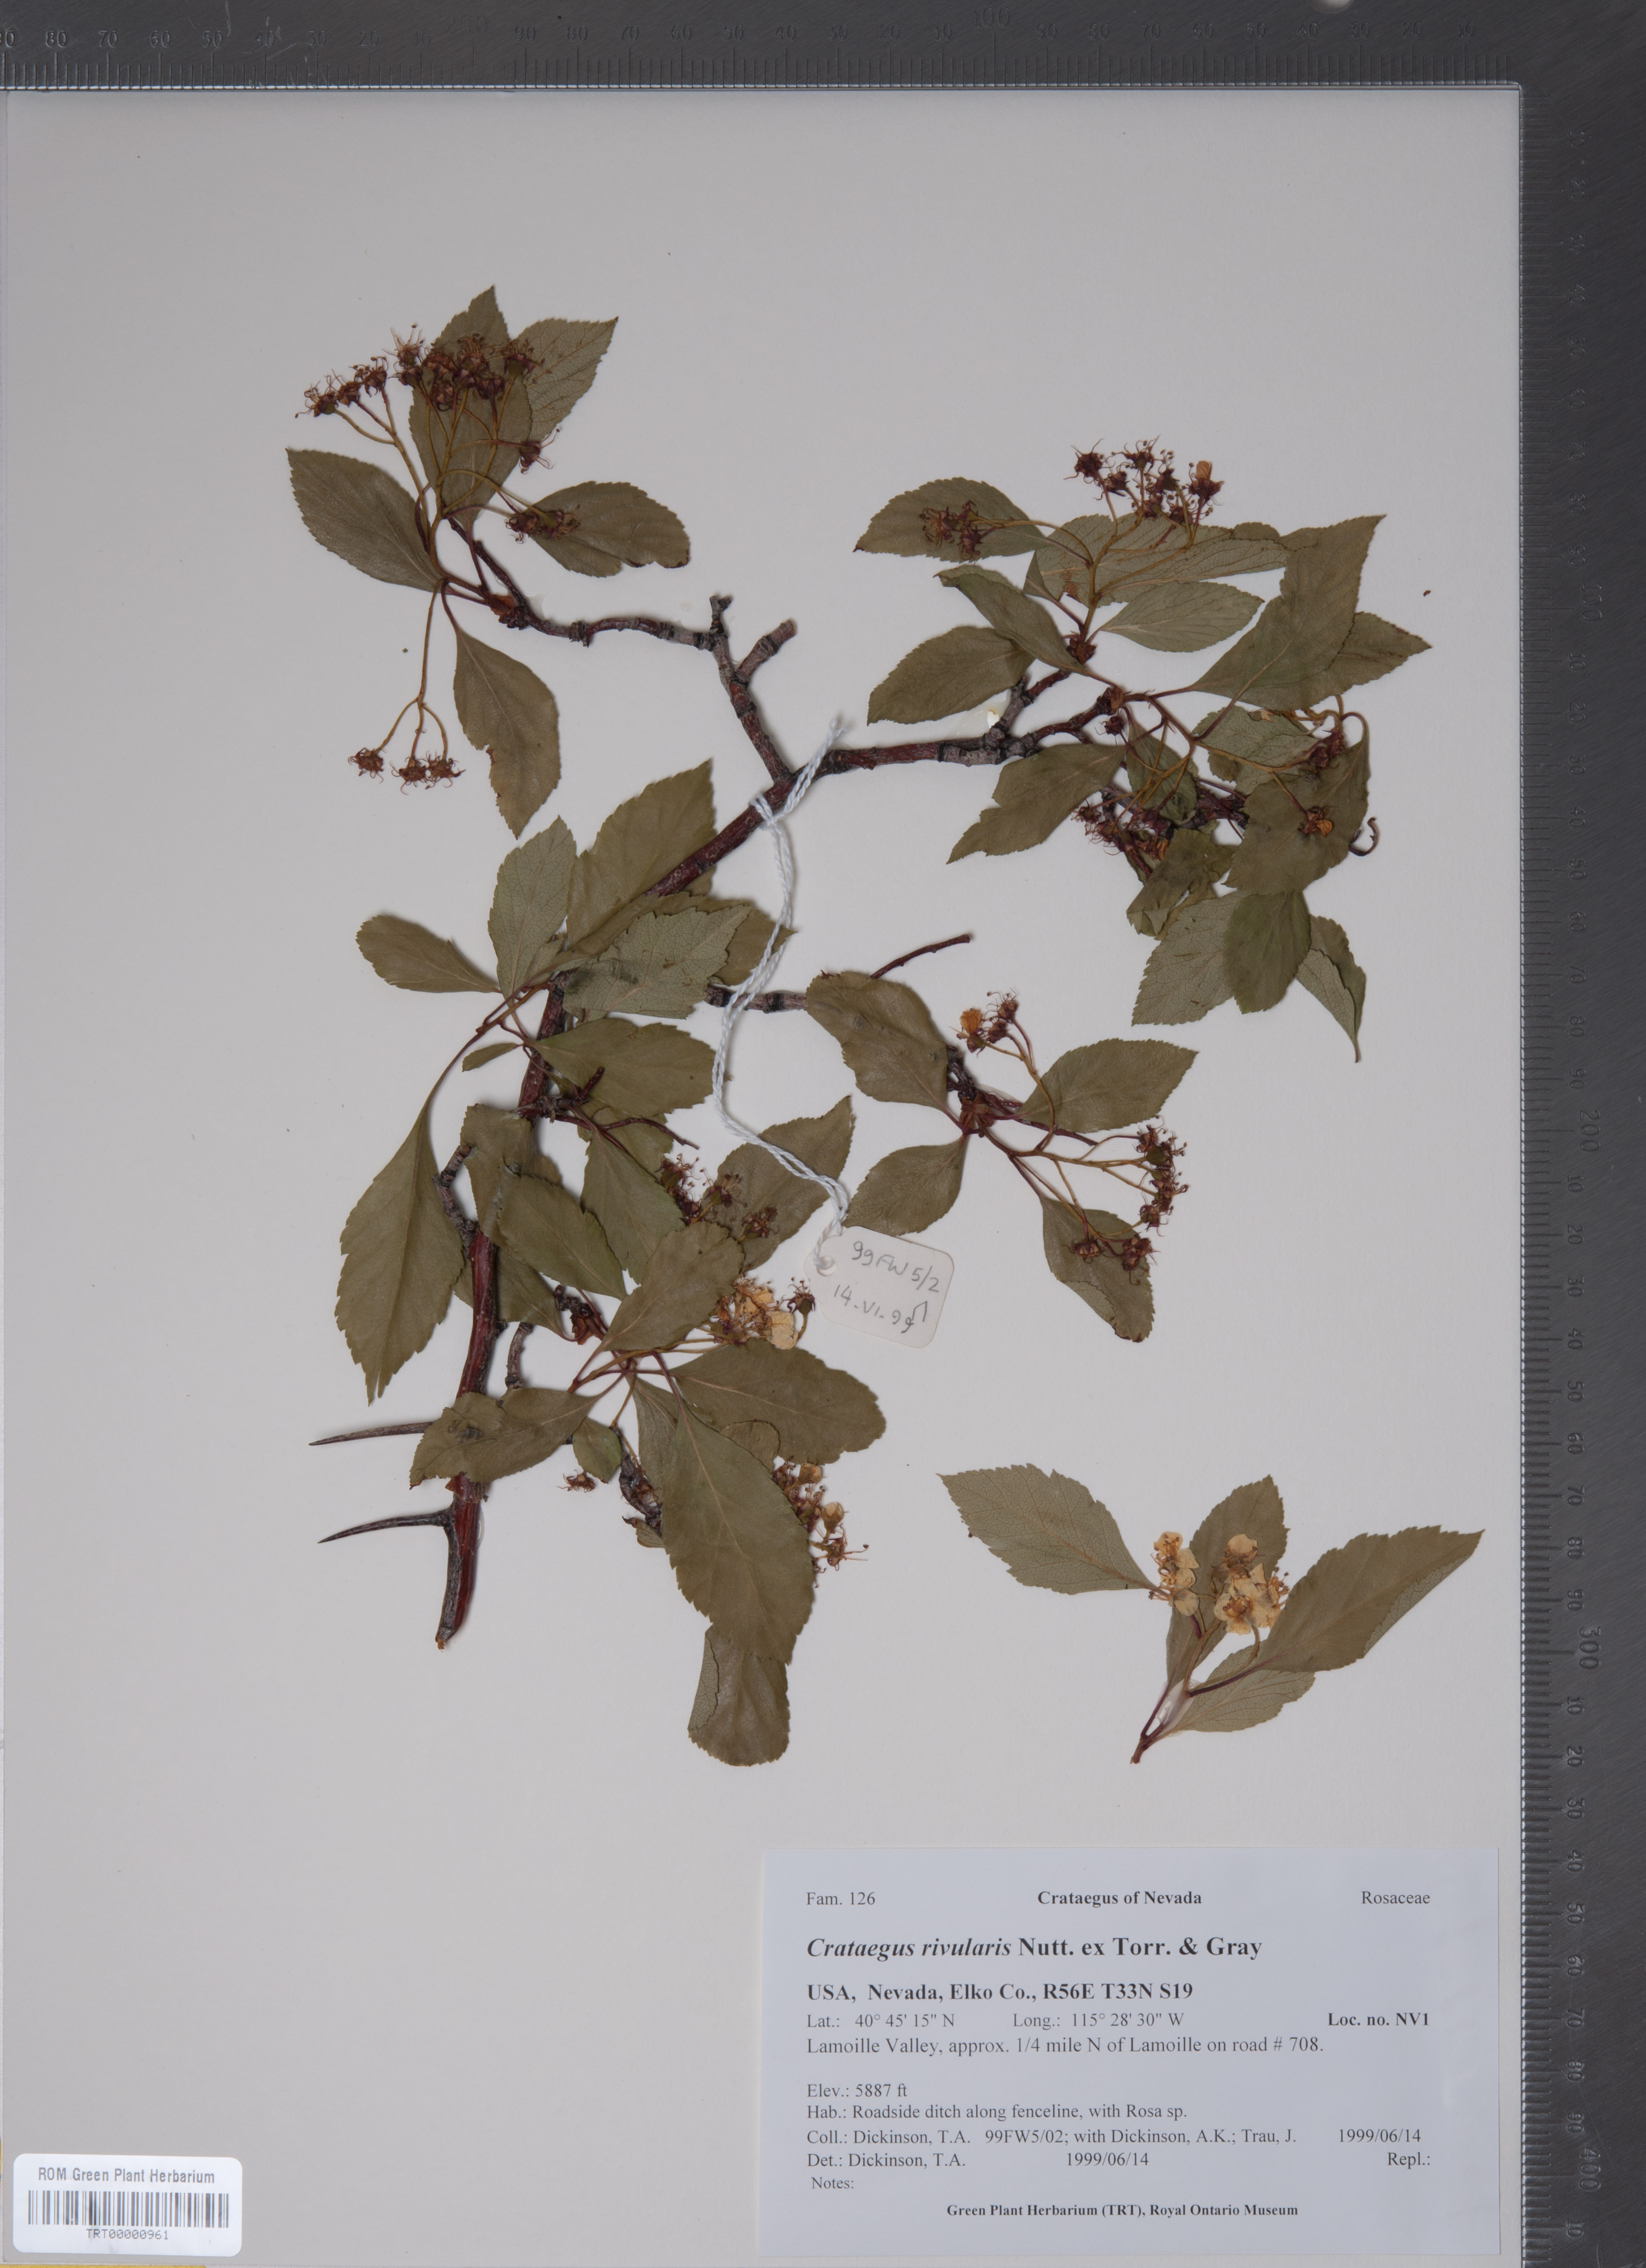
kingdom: Plantae
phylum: Tracheophyta
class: Magnoliopsida
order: Rosales
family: Rosaceae
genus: Crataegus
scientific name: Crataegus rivularis
